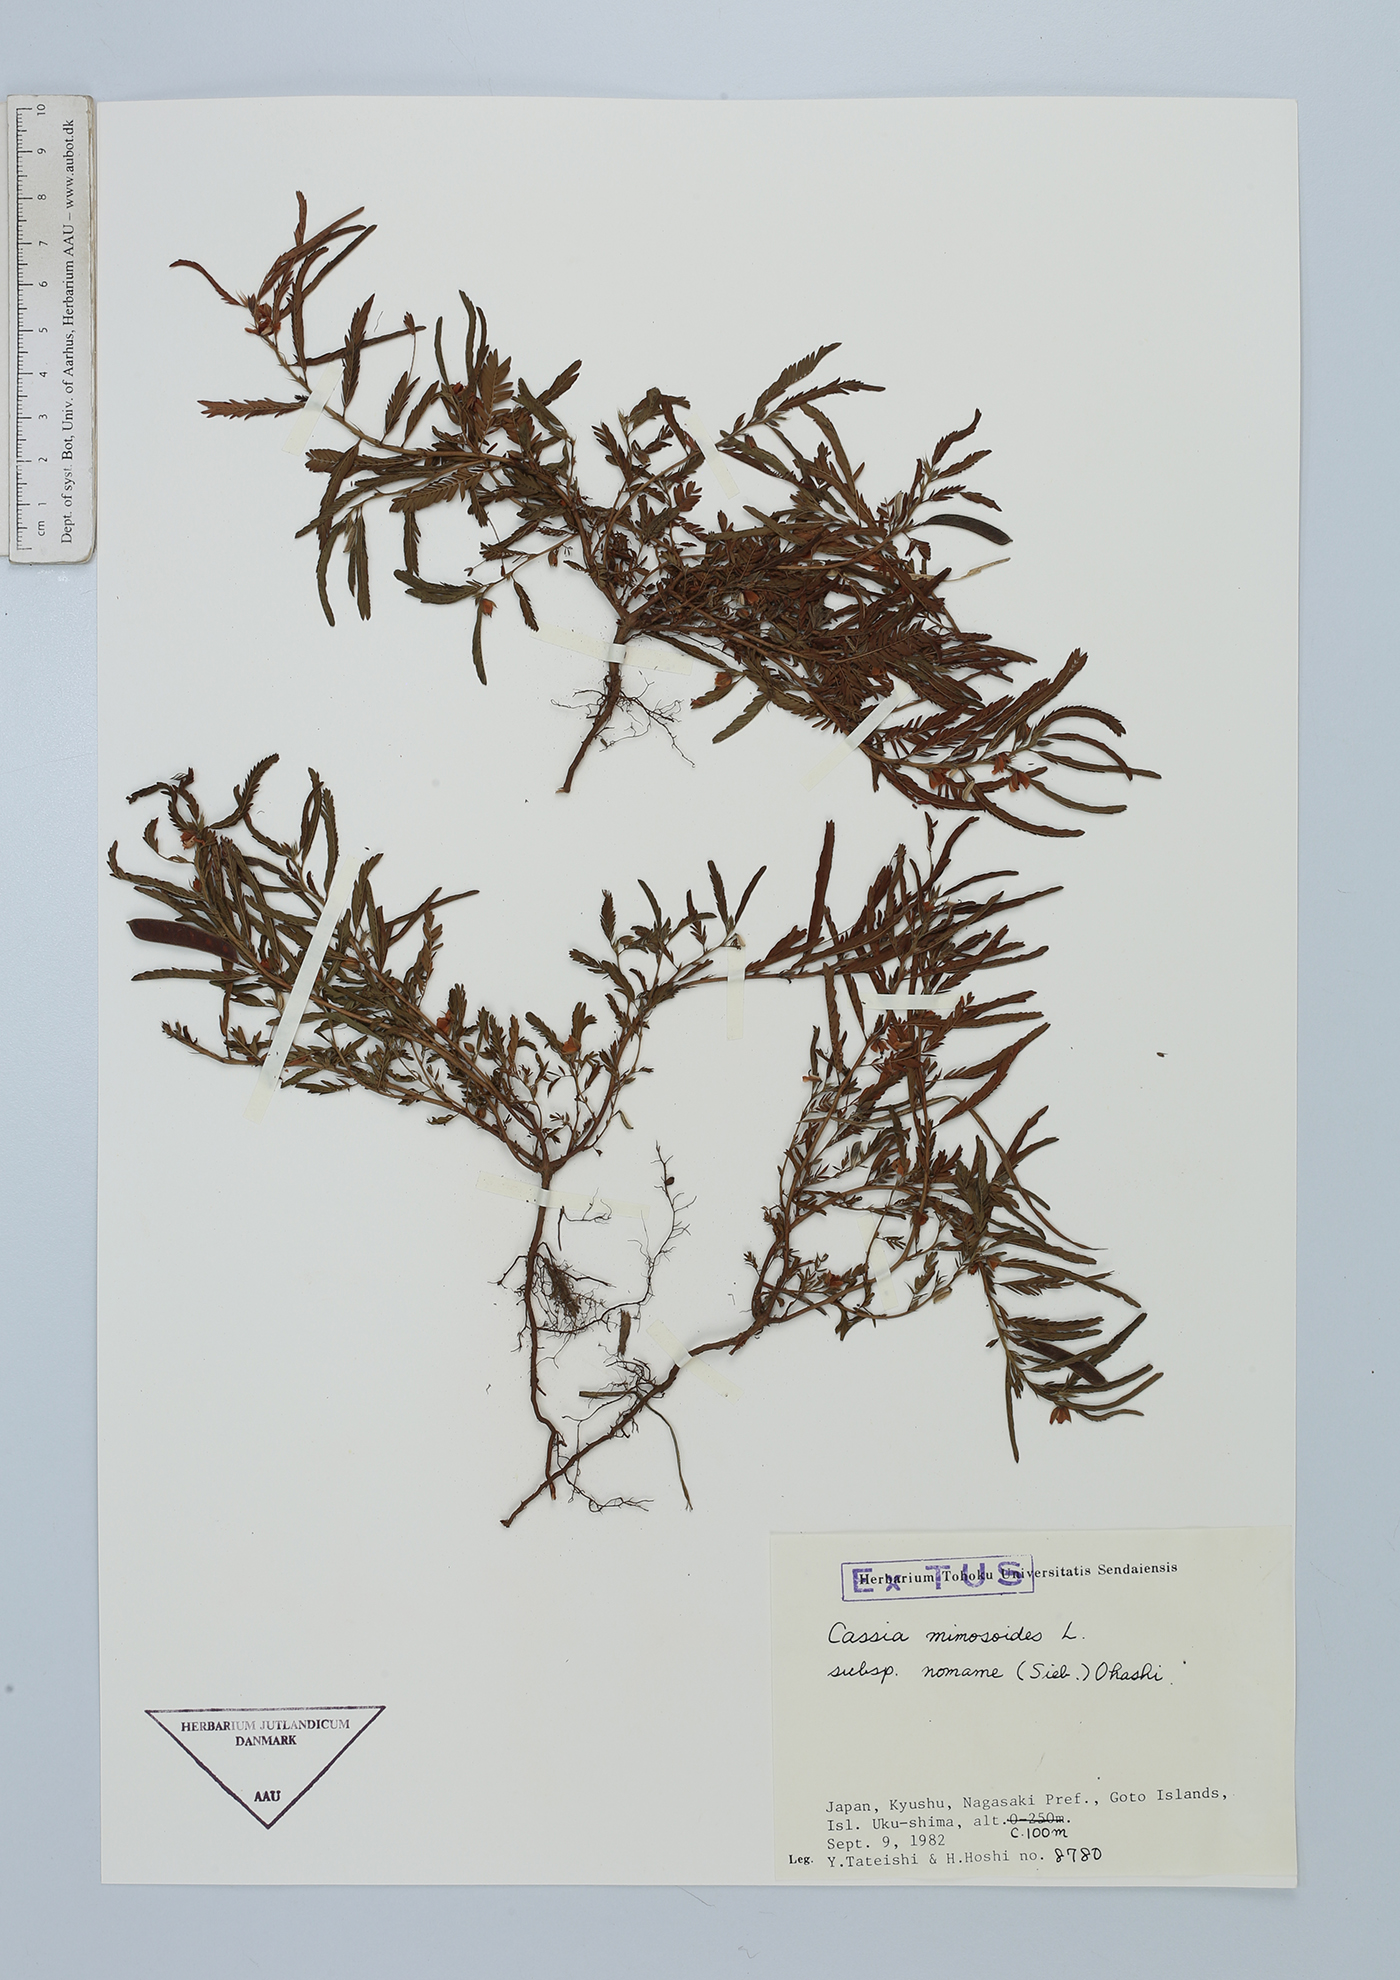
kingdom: Plantae
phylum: Tracheophyta
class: Magnoliopsida
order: Fabales
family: Fabaceae
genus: Chamaecrista
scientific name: Chamaecrista nomame
